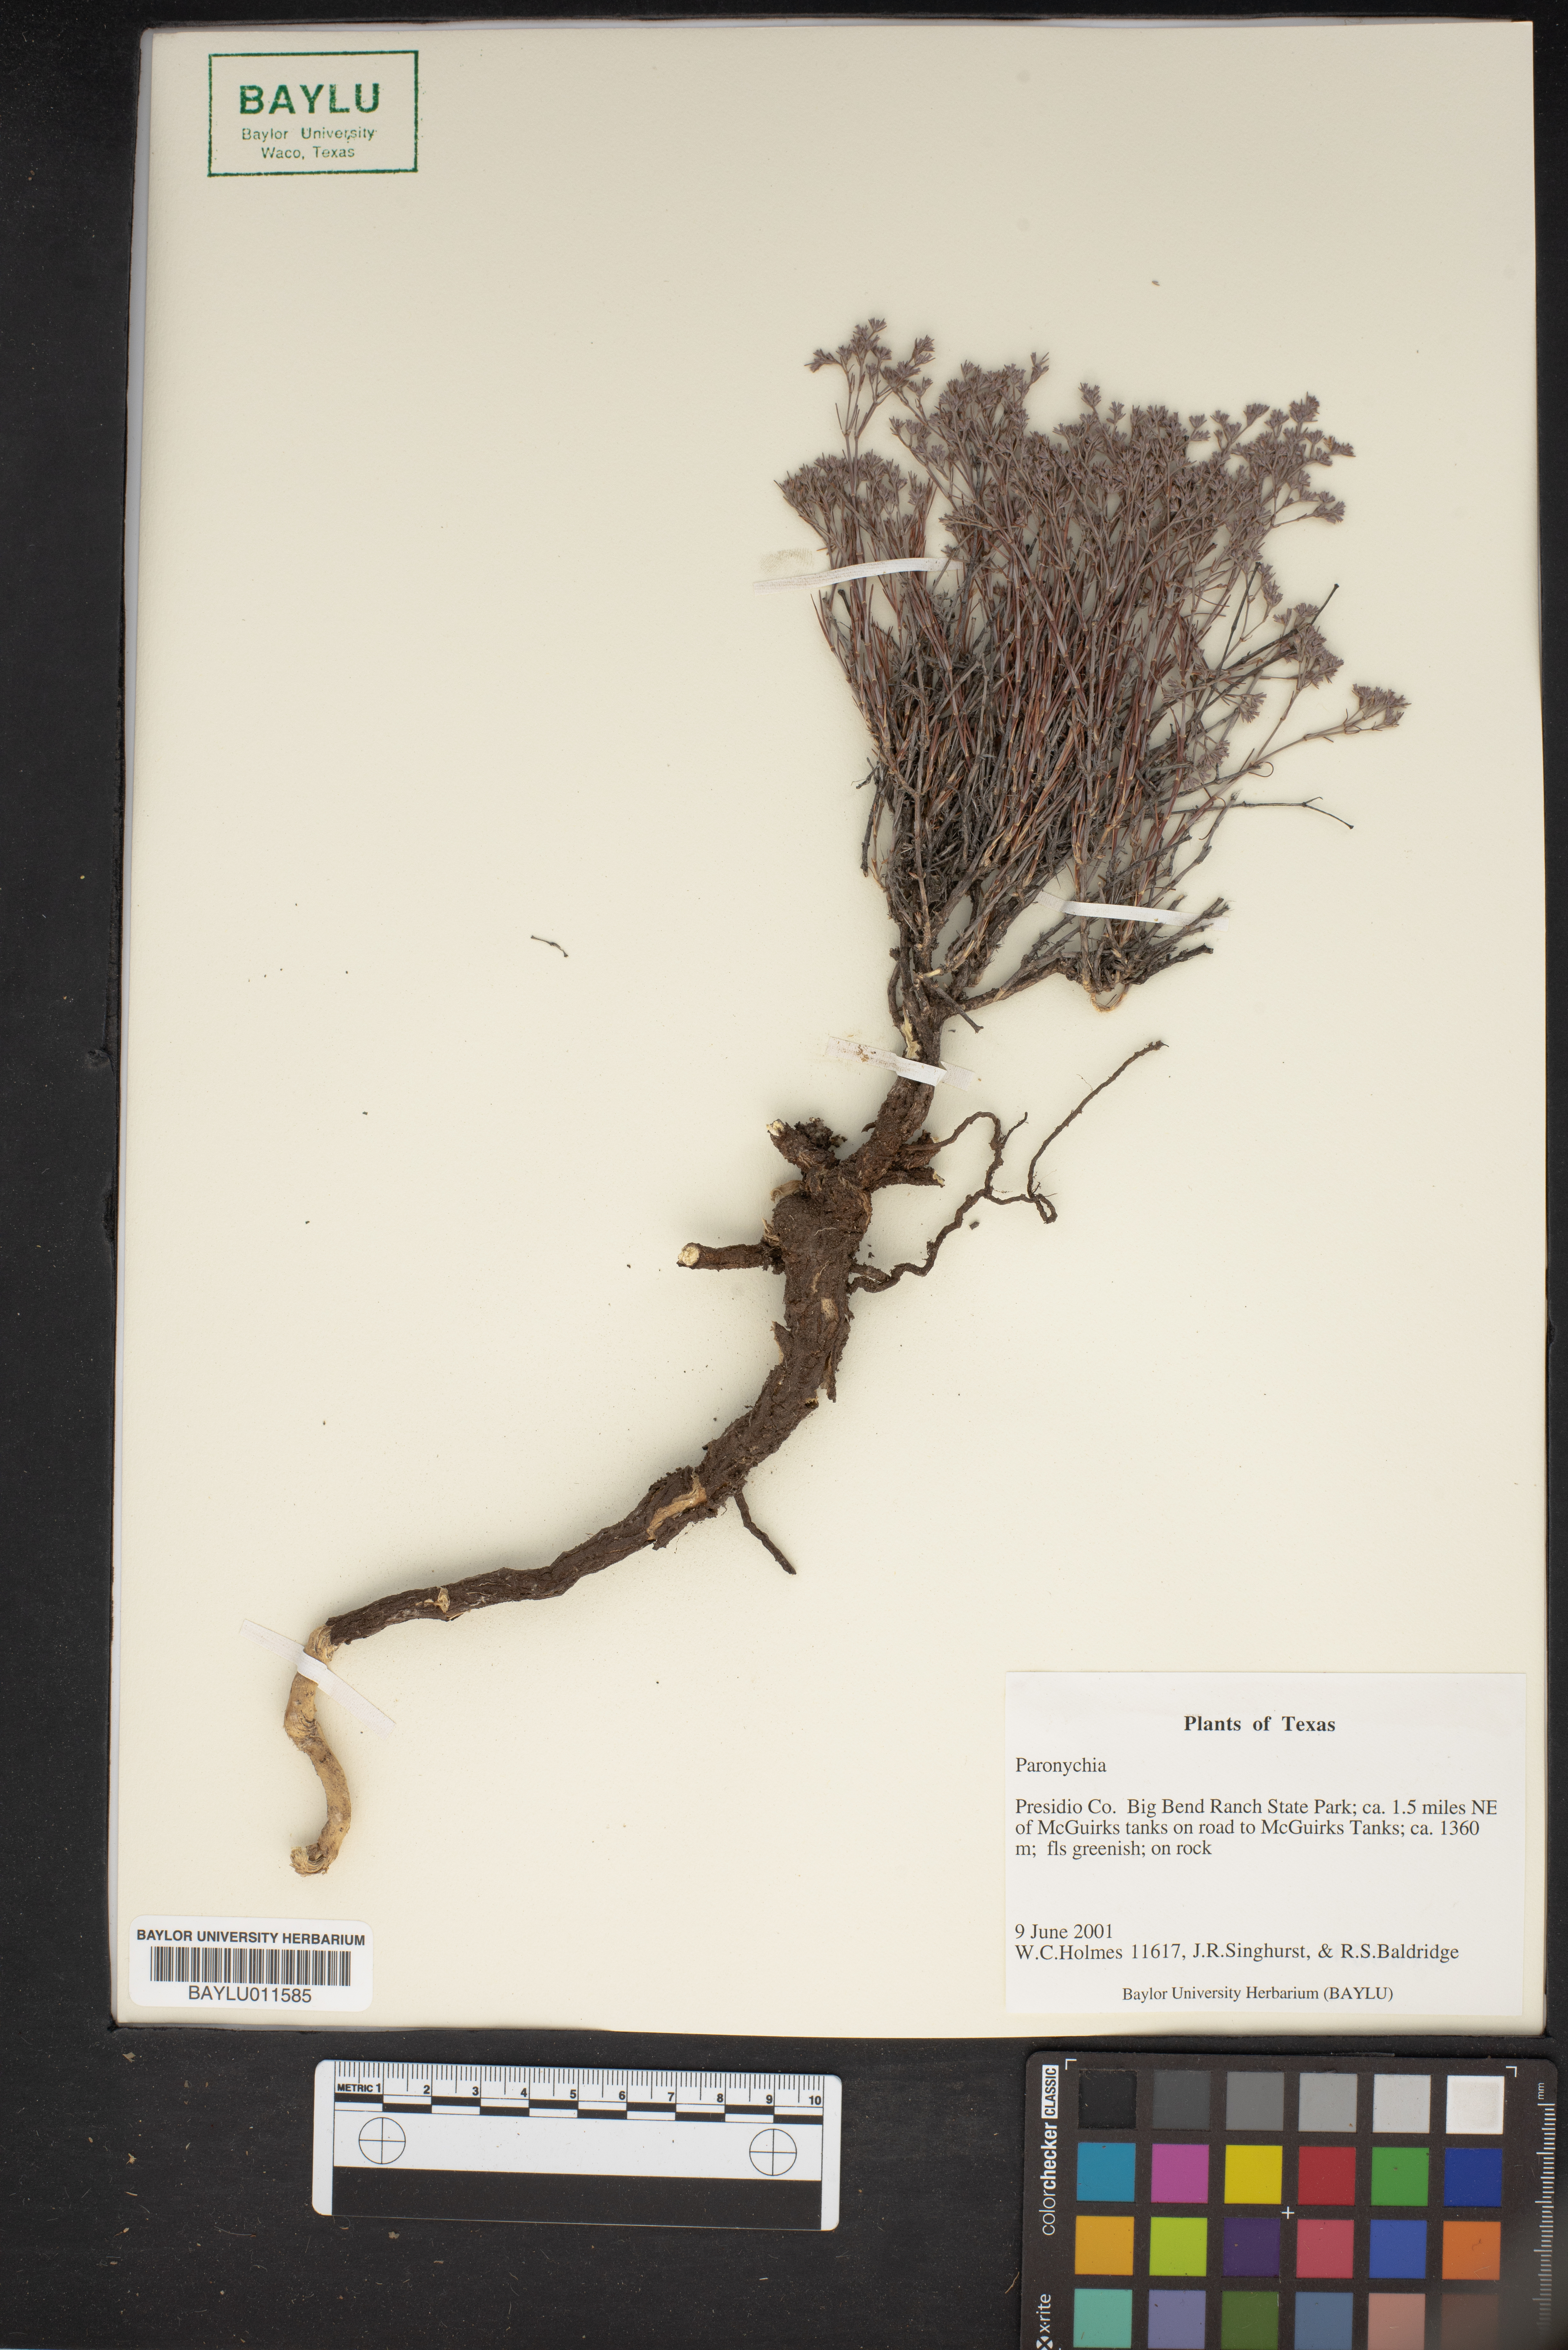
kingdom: Plantae
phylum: Tracheophyta
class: Magnoliopsida
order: Caryophyllales
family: Caryophyllaceae
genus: Paronychia
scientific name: Paronychia
